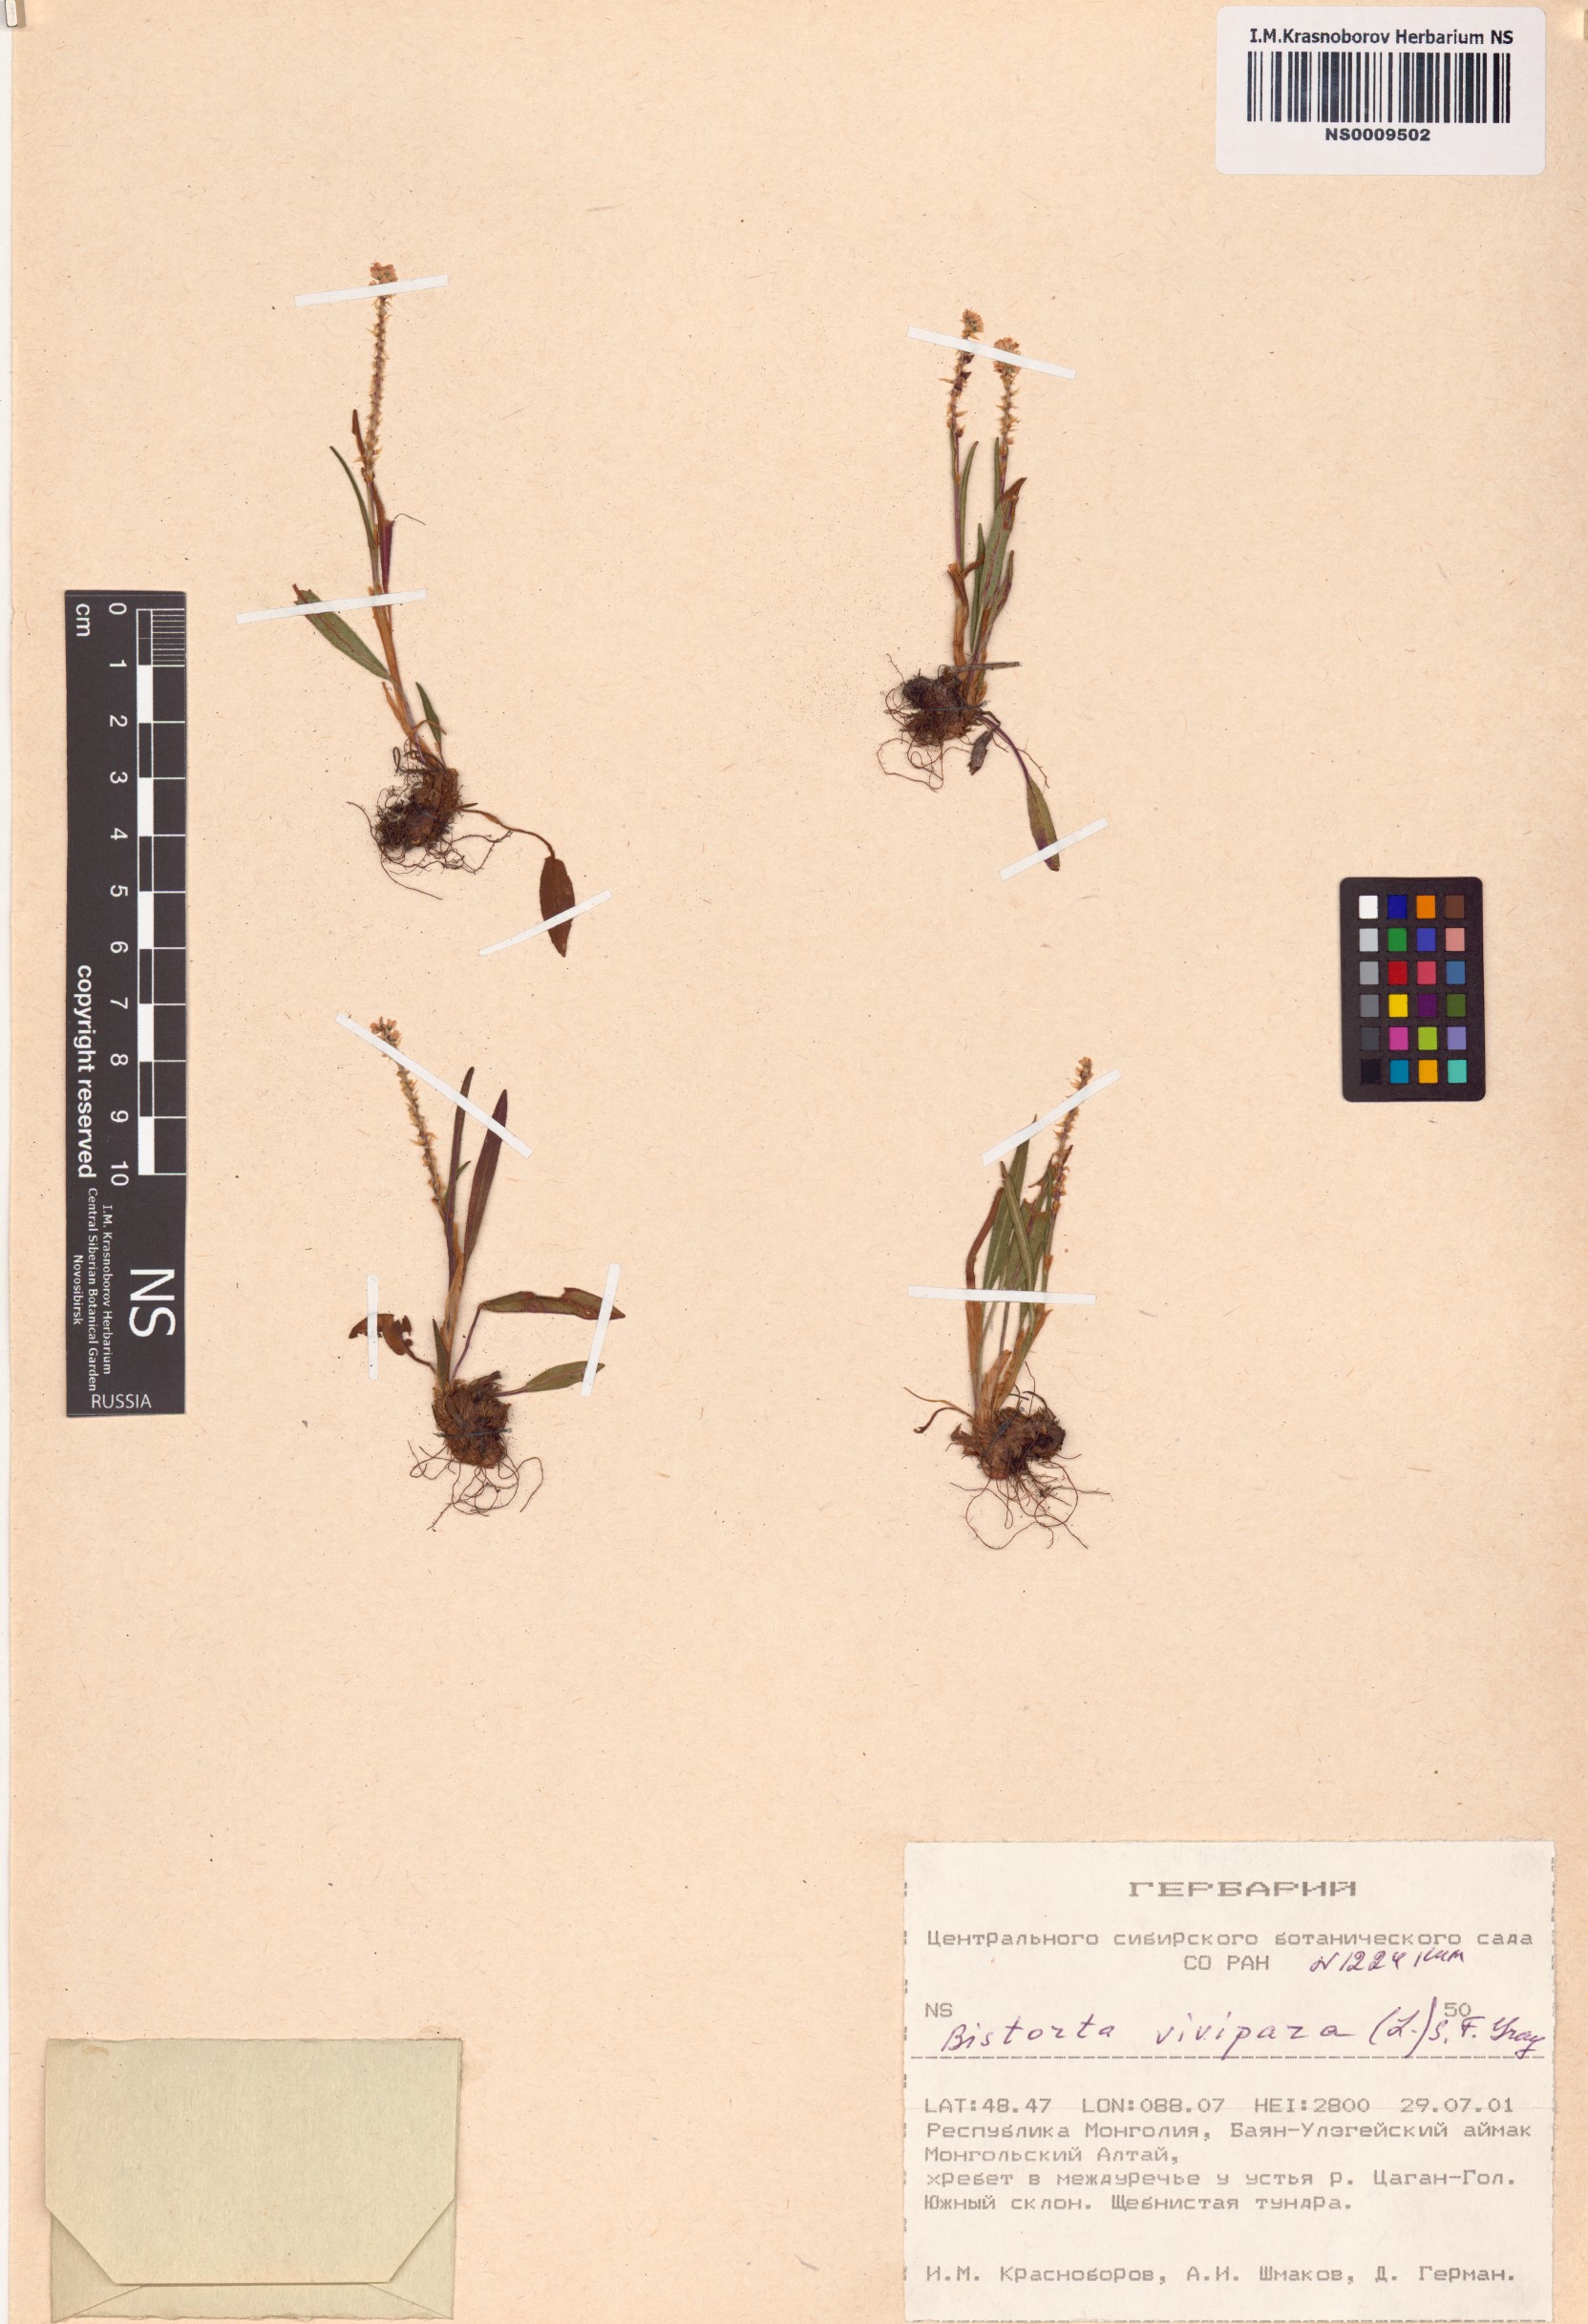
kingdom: Plantae
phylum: Tracheophyta
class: Magnoliopsida
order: Caryophyllales
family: Polygonaceae
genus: Bistorta
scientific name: Bistorta vivipara
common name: Alpine bistort
